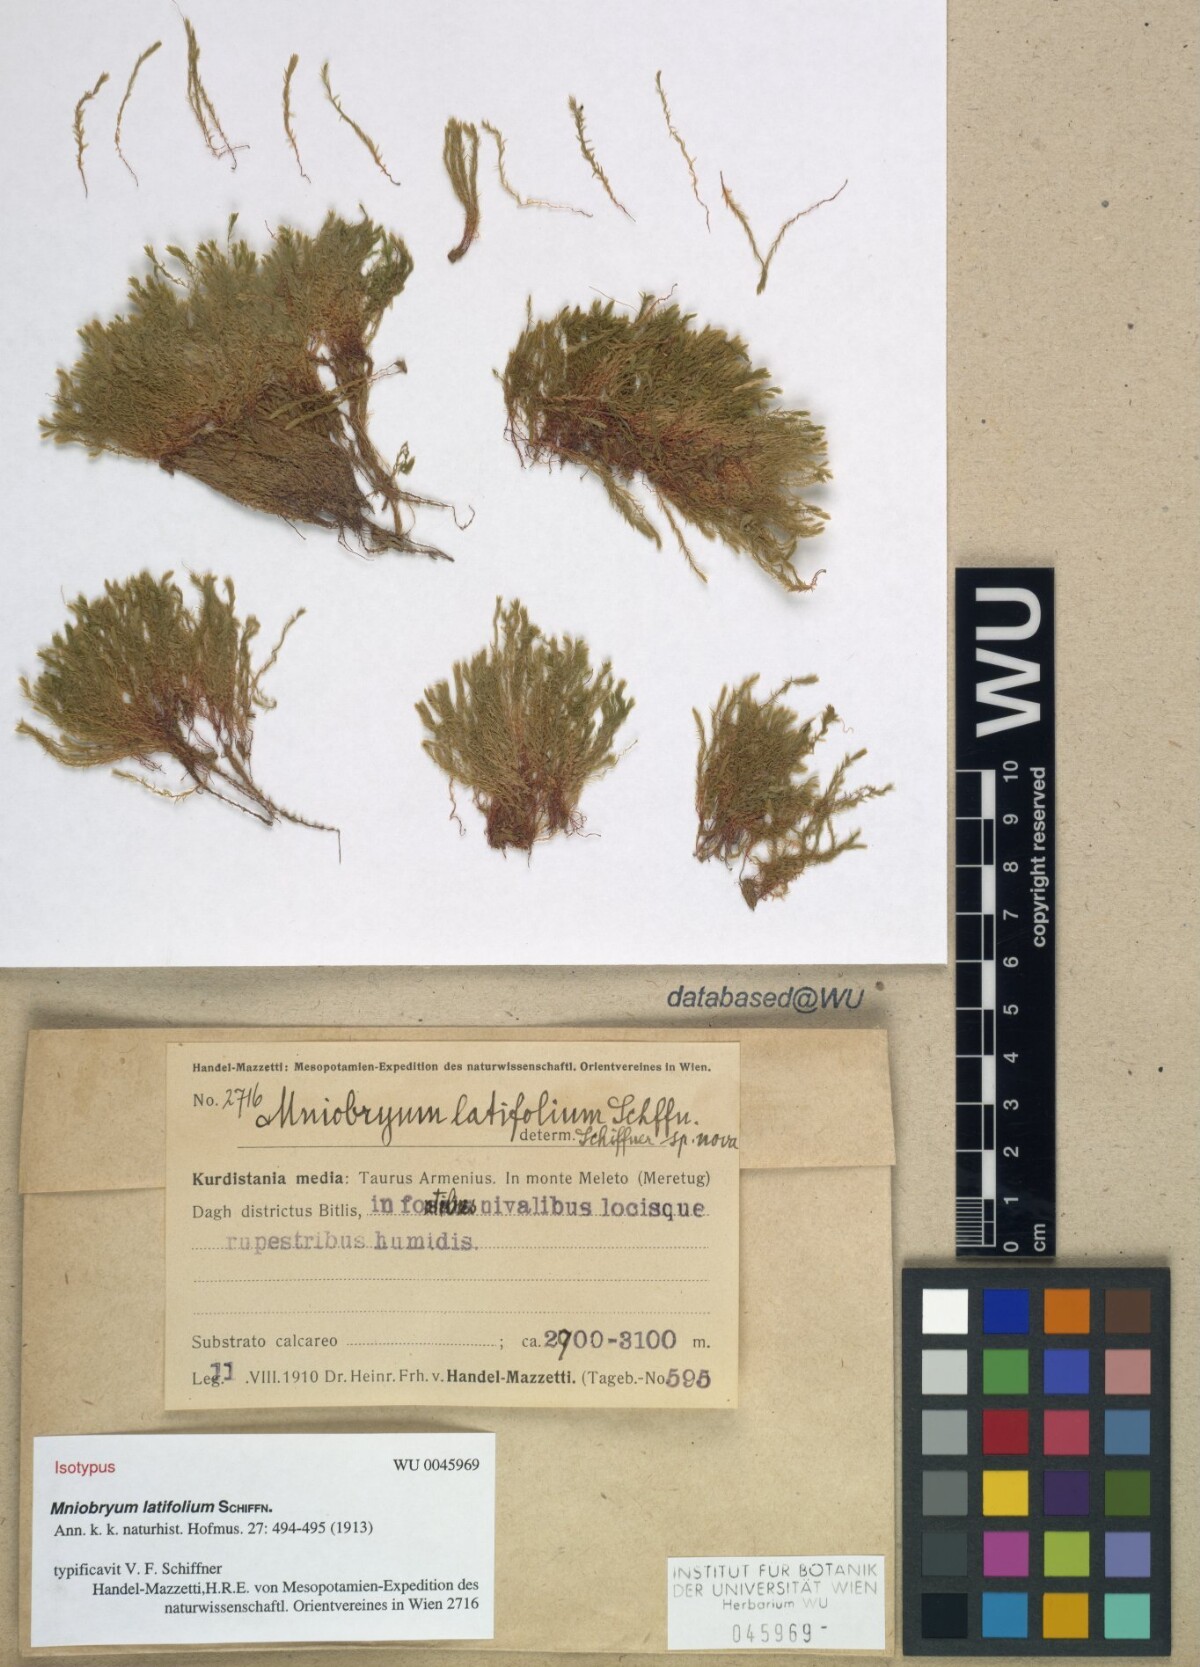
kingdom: Plantae
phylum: Bryophyta
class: Bryopsida
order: Bryales
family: Mniaceae
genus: Pohlia
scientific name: Pohlia wahlenbergii
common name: Wahlenberg's nodding moss
